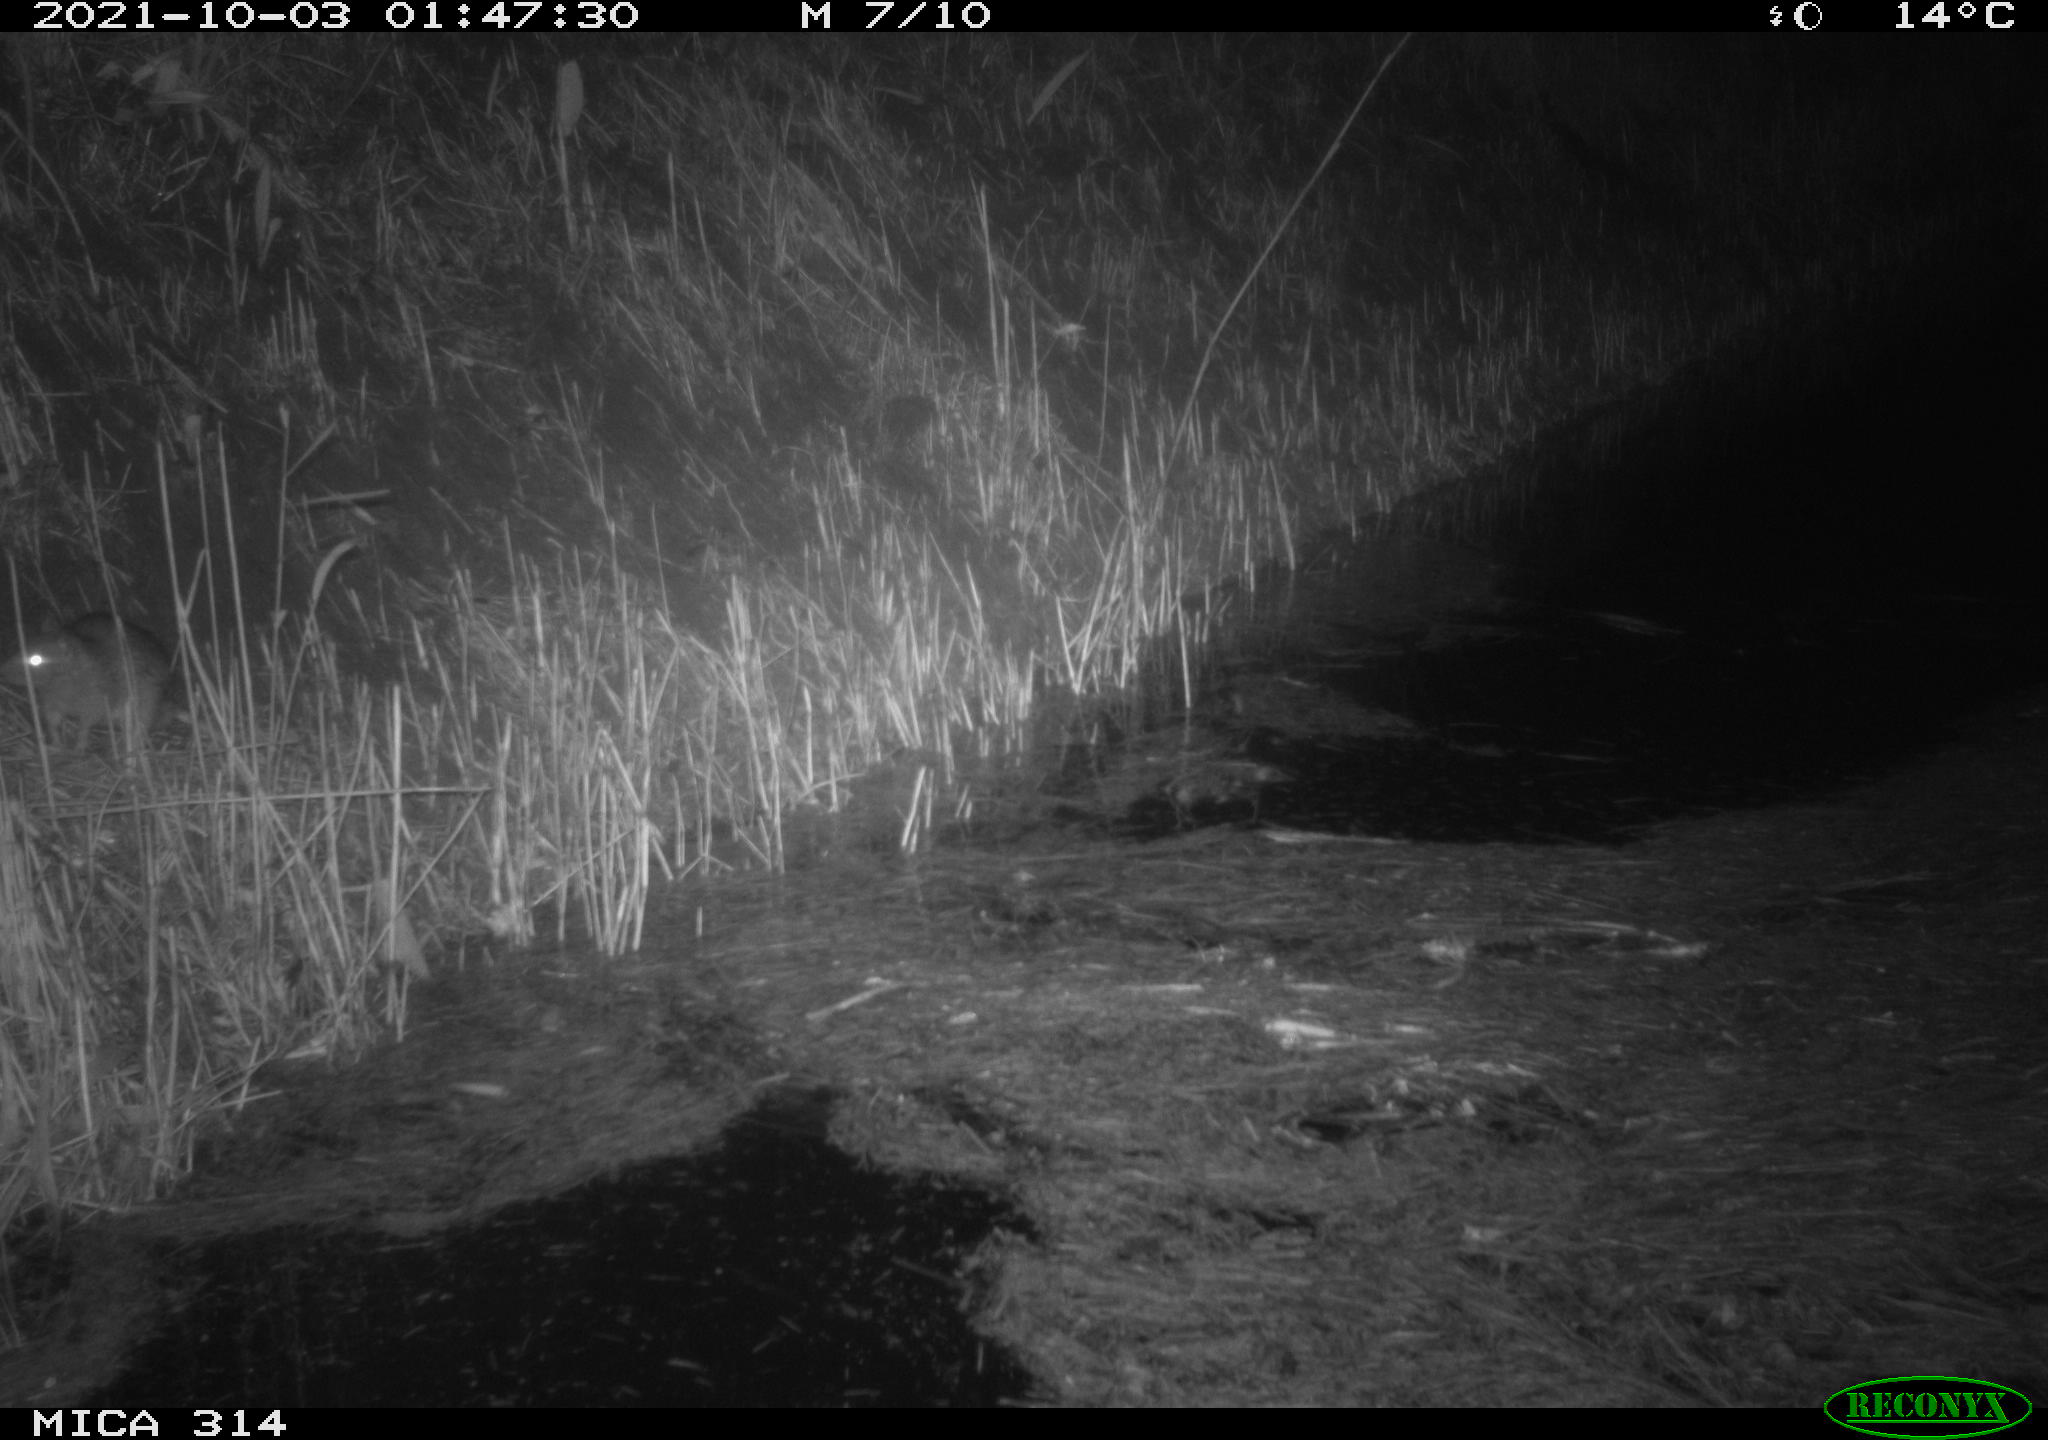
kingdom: Animalia
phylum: Chordata
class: Mammalia
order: Rodentia
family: Muridae
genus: Rattus
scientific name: Rattus norvegicus
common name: Brown rat
